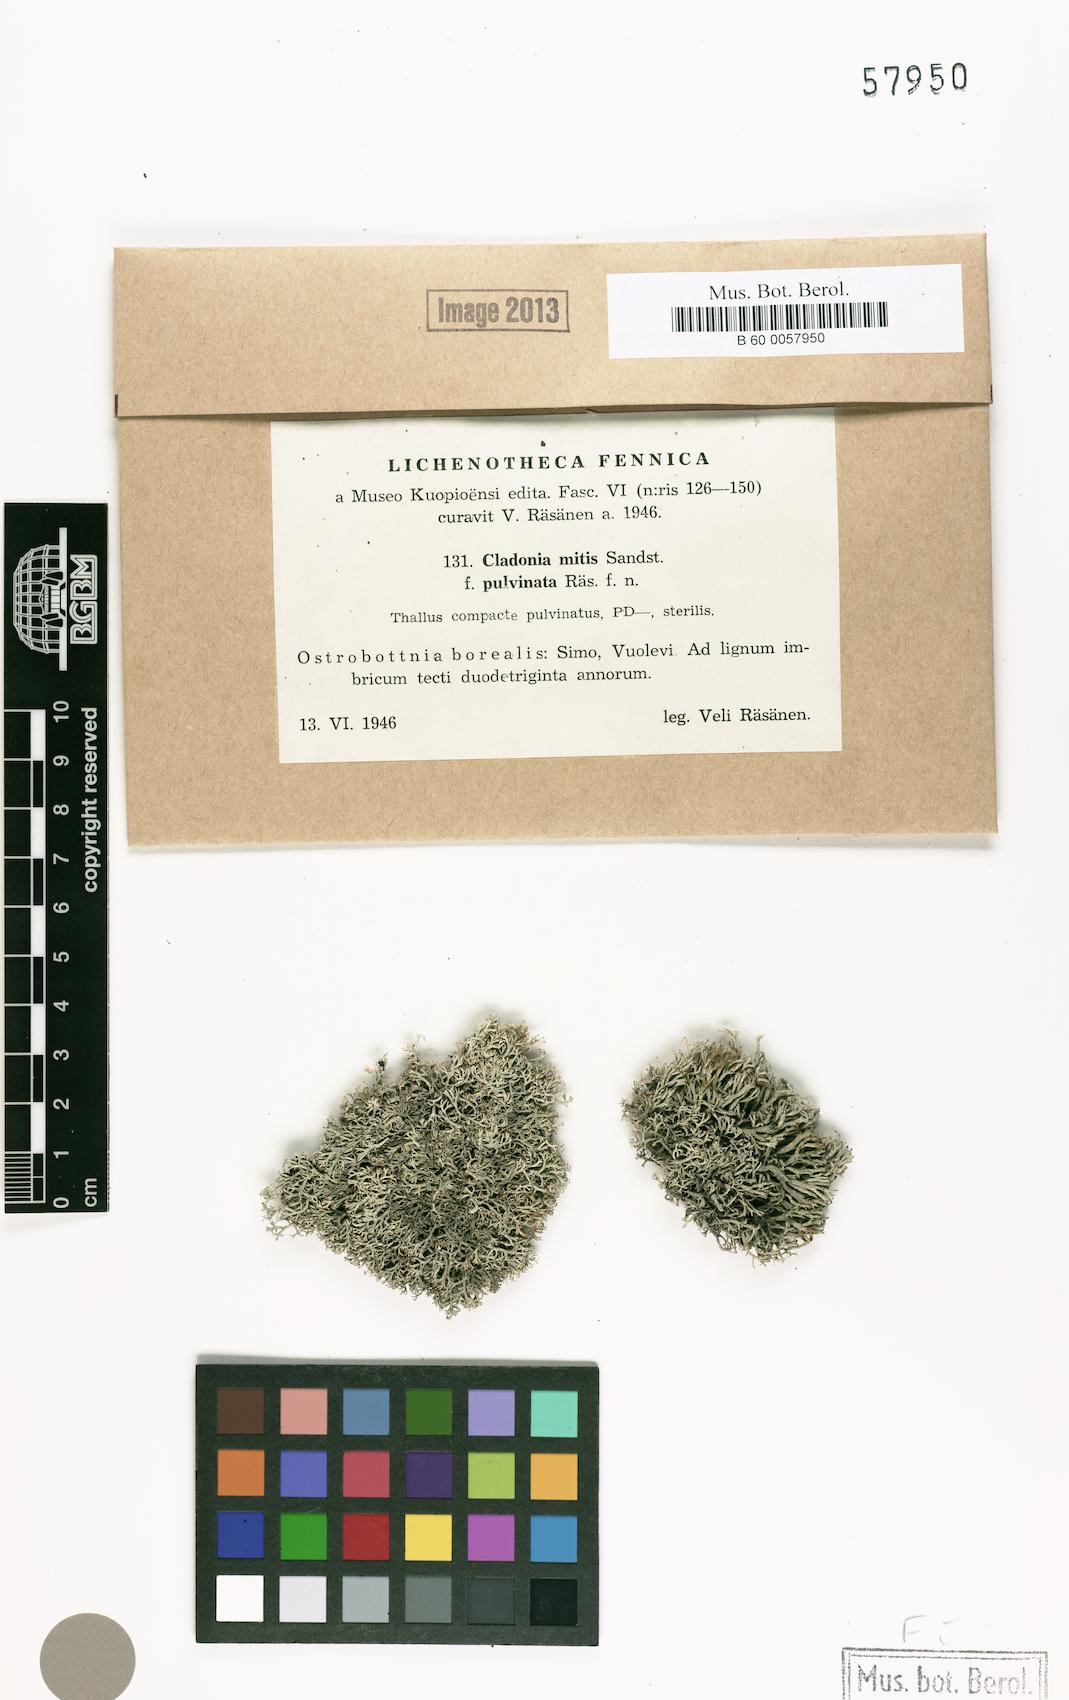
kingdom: Fungi
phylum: Ascomycota
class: Lecanoromycetes
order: Lecanorales
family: Cladoniaceae
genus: Cladonia
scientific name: Cladonia mitis
